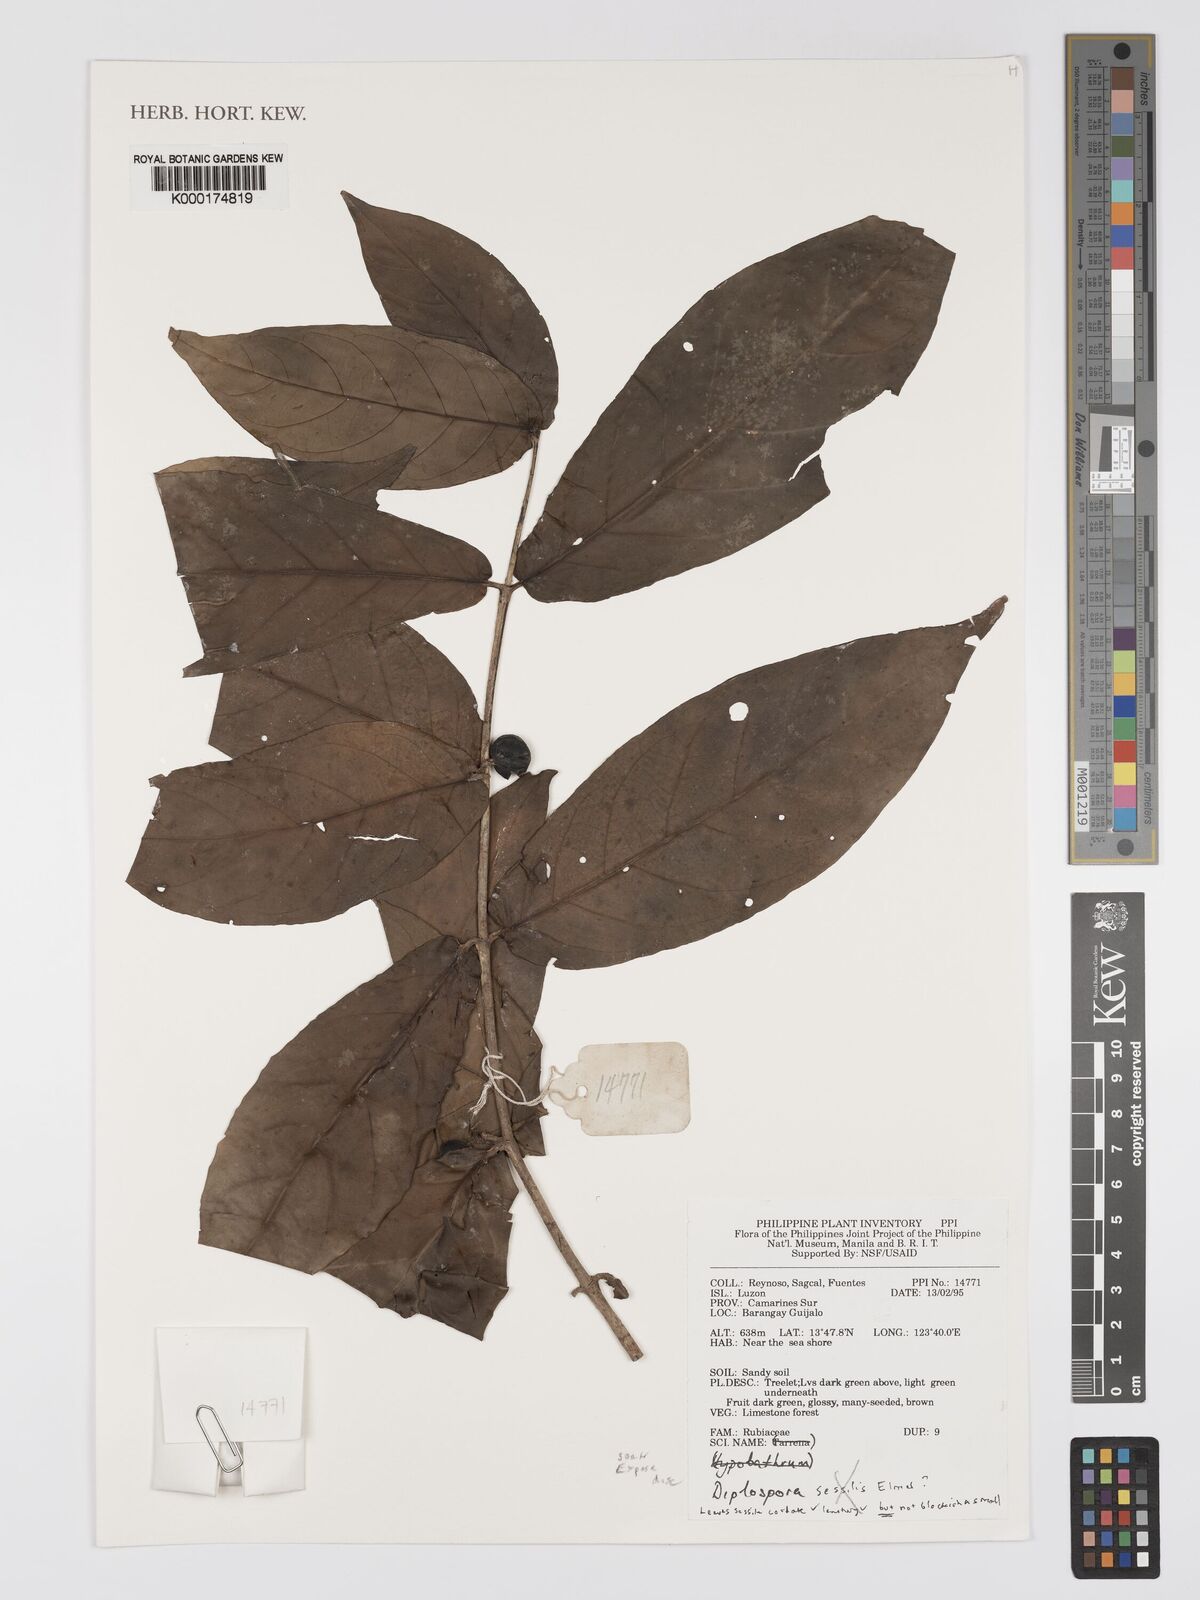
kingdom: Plantae
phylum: Tracheophyta
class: Magnoliopsida
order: Gentianales
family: Rubiaceae
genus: Diplospora
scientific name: Diplospora
